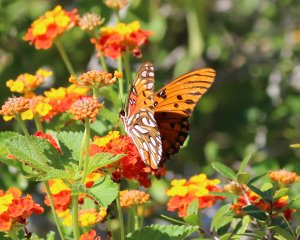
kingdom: Animalia
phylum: Arthropoda
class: Insecta
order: Lepidoptera
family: Nymphalidae
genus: Dione
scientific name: Dione vanillae
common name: Gulf Fritillary
